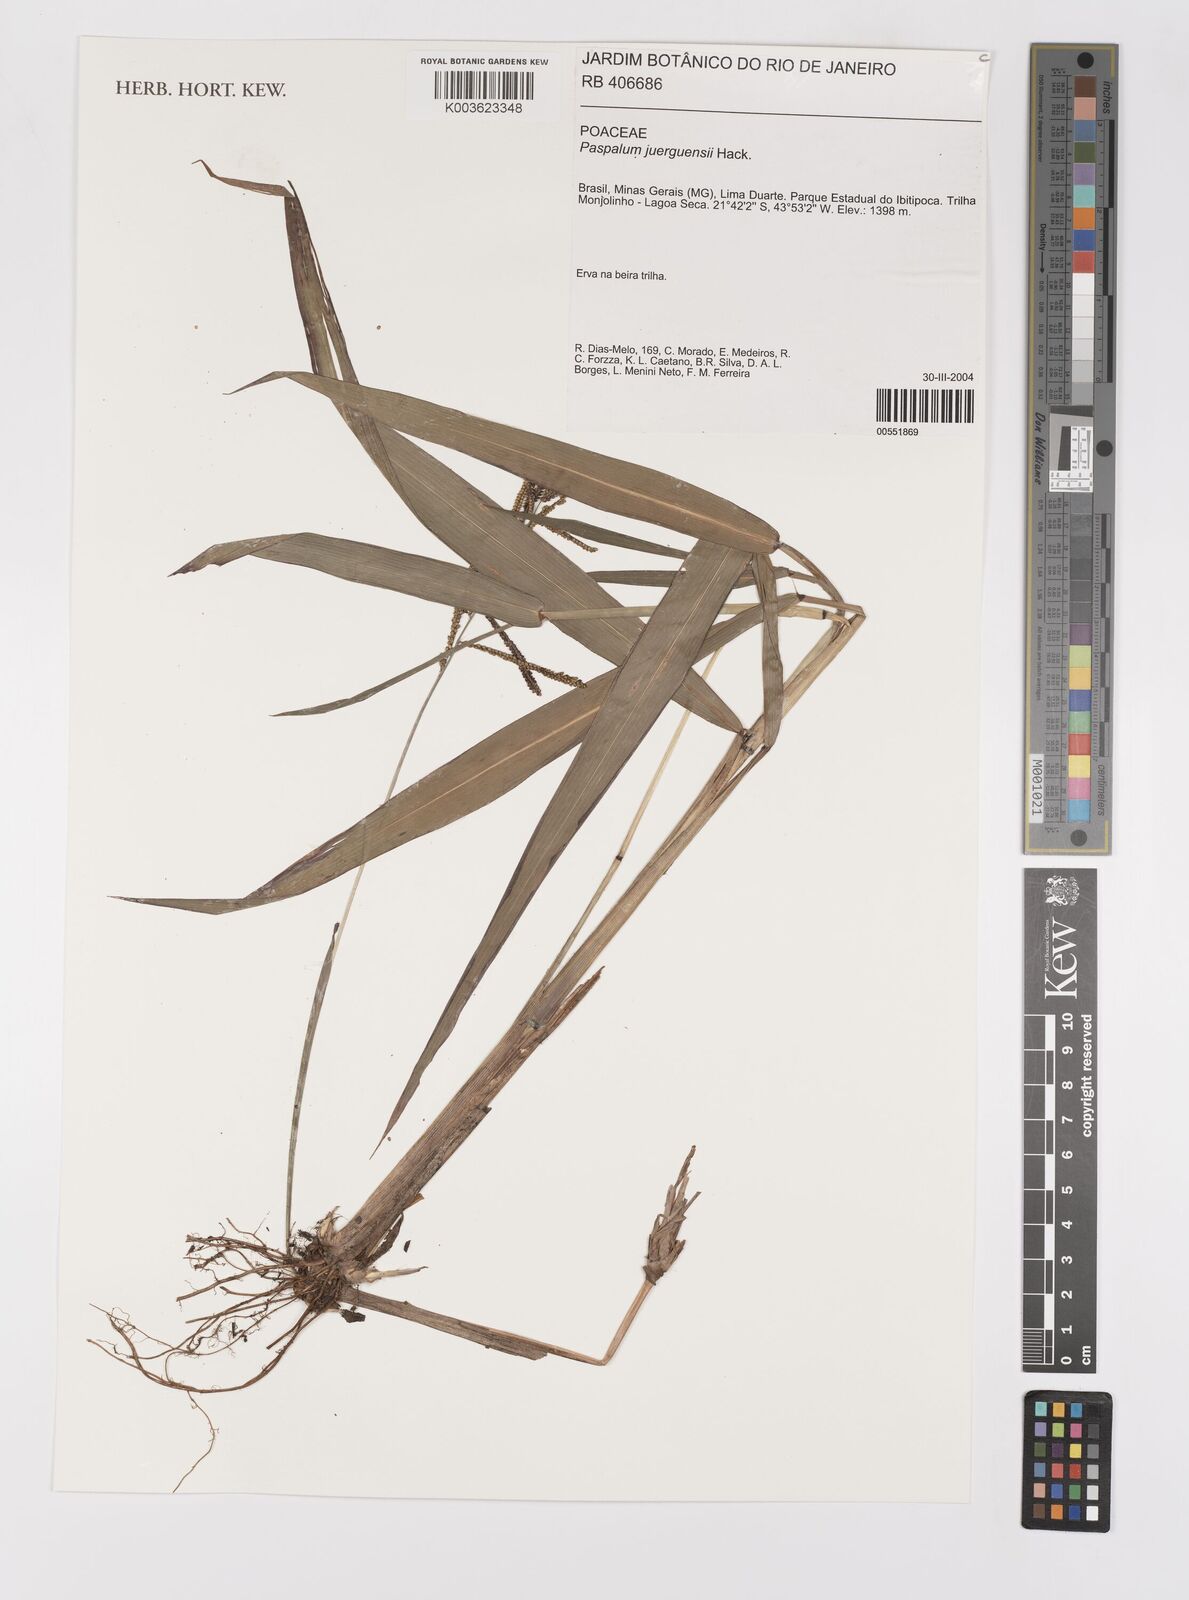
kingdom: Plantae
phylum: Tracheophyta
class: Liliopsida
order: Poales
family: Poaceae
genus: Paspalum
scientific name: Paspalum juergensii
